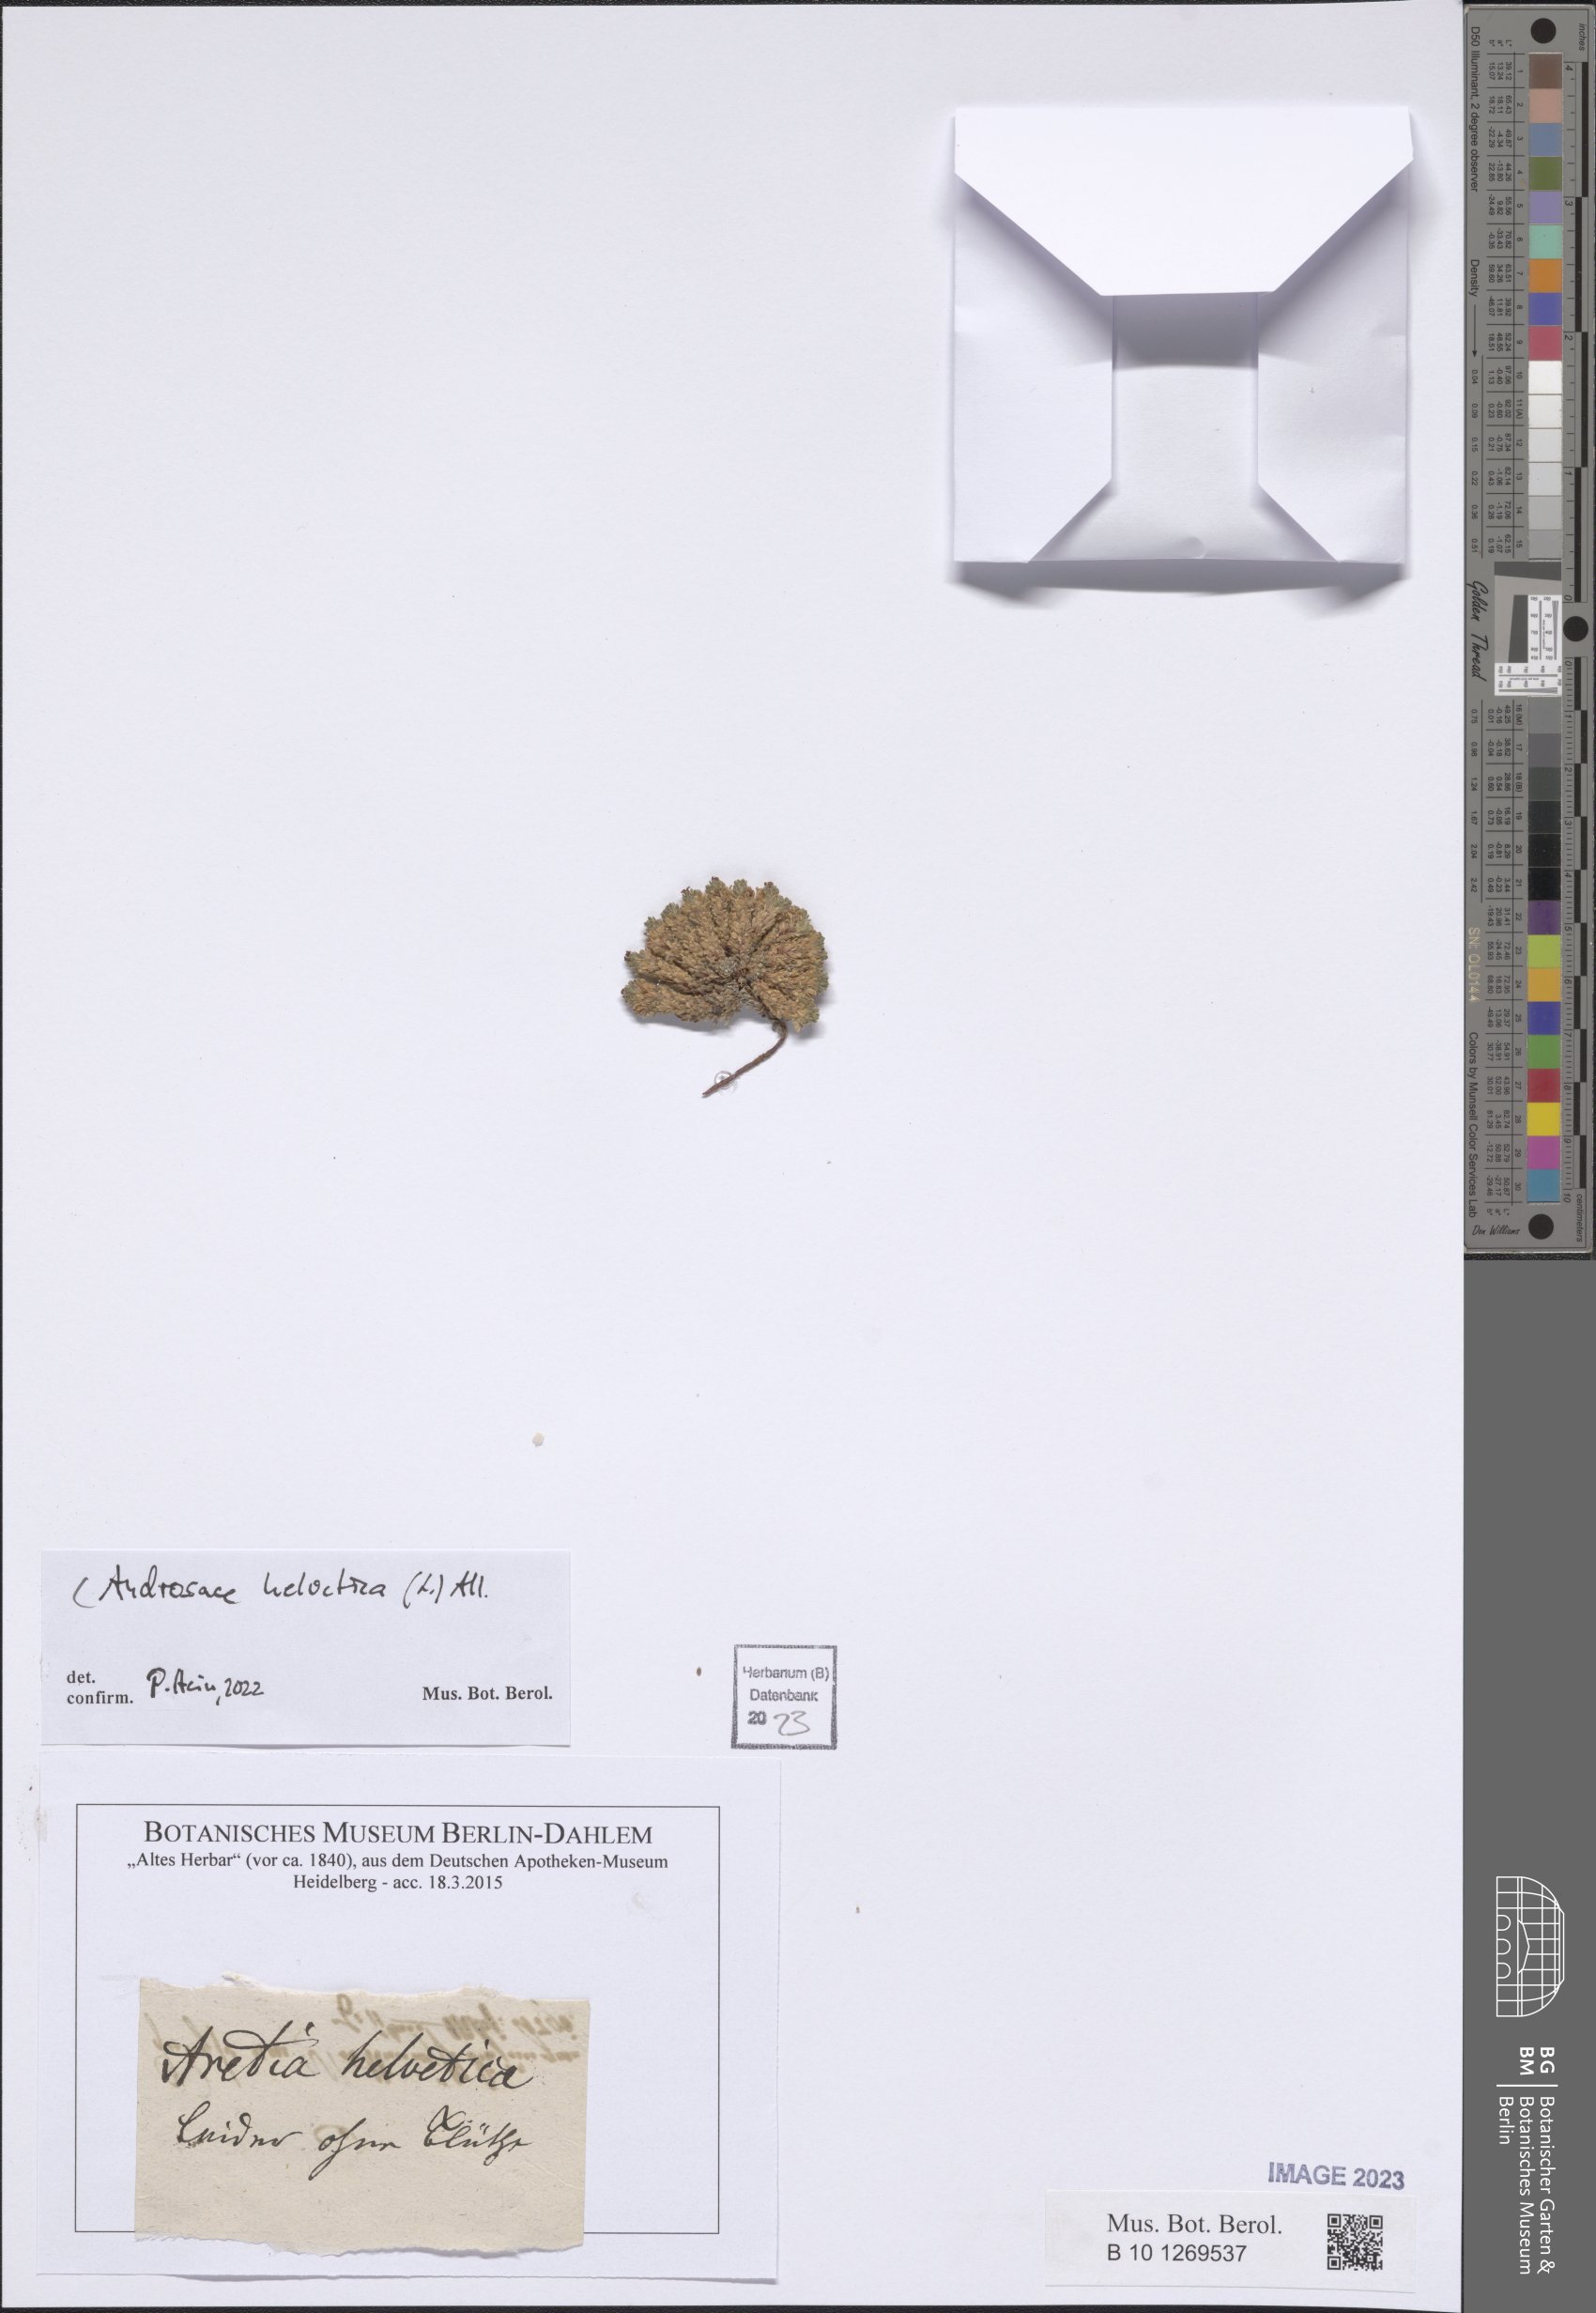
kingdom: Plantae
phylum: Tracheophyta
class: Magnoliopsida
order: Ericales
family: Primulaceae
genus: Androsace
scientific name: Androsace helvetica
